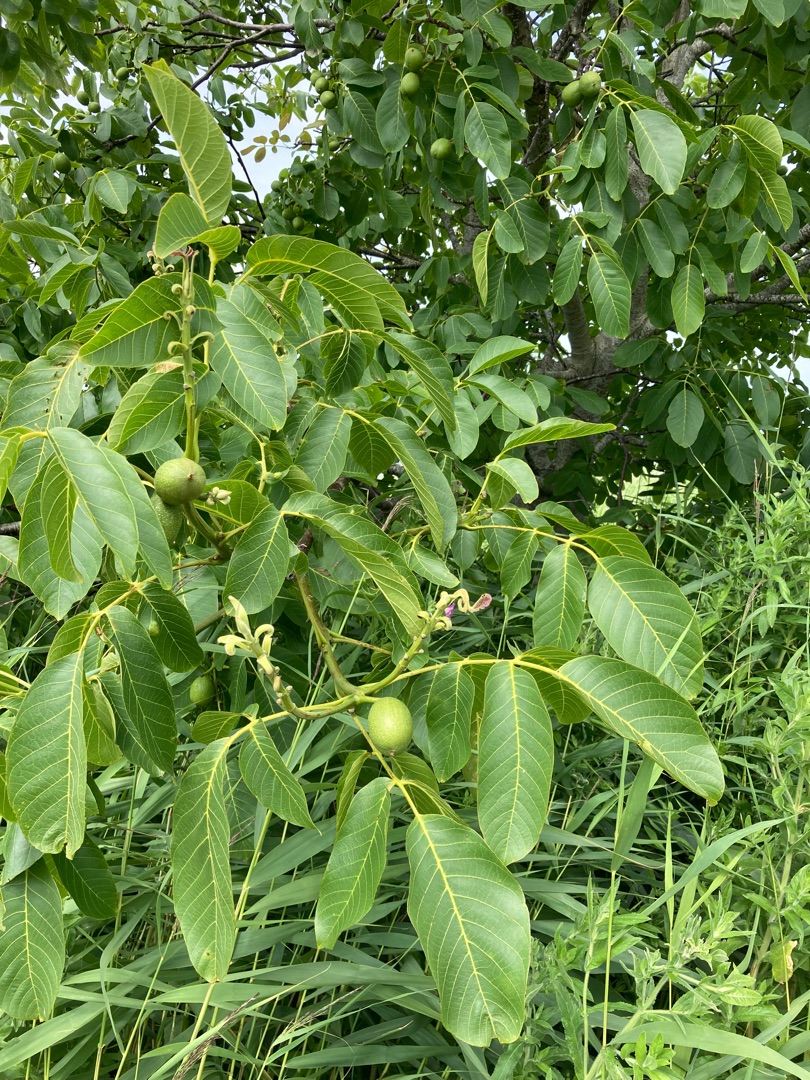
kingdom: Plantae
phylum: Tracheophyta
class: Magnoliopsida
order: Fagales
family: Juglandaceae
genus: Juglans
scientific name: Juglans regia
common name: Almindelig valnød
